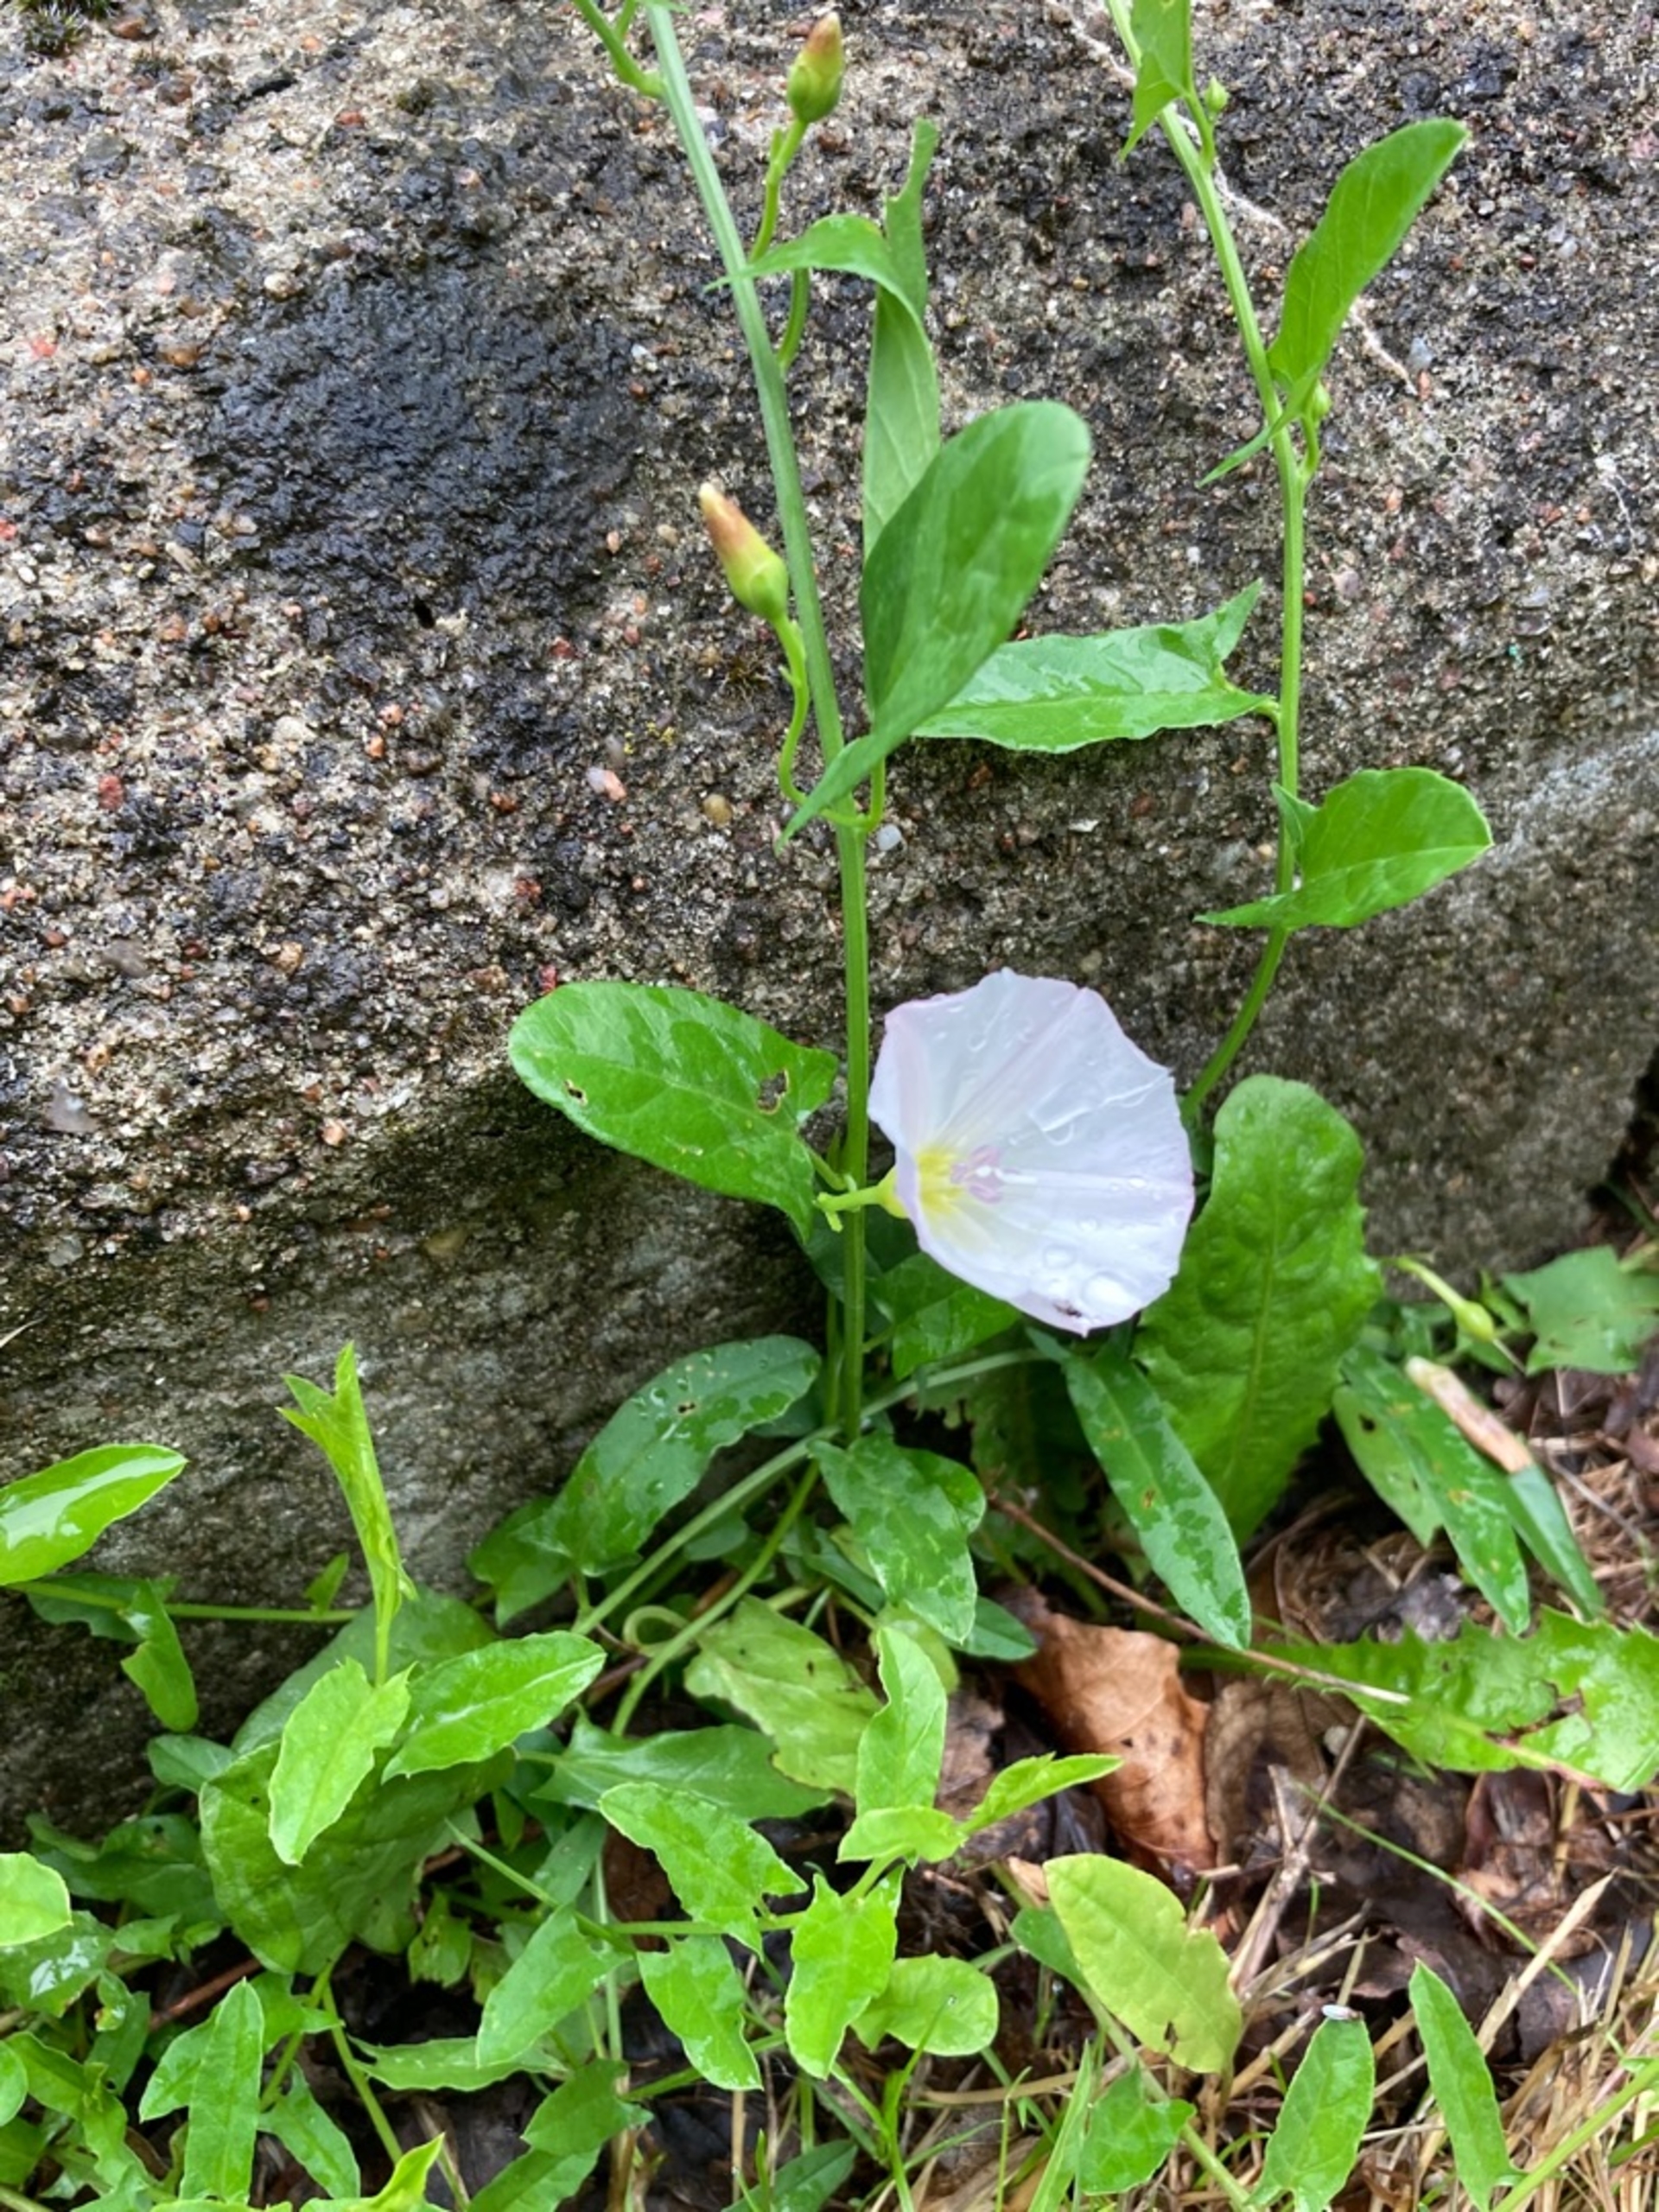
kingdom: Plantae
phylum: Tracheophyta
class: Magnoliopsida
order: Solanales
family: Convolvulaceae
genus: Convolvulus
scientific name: Convolvulus arvensis
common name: Ager-snerle
